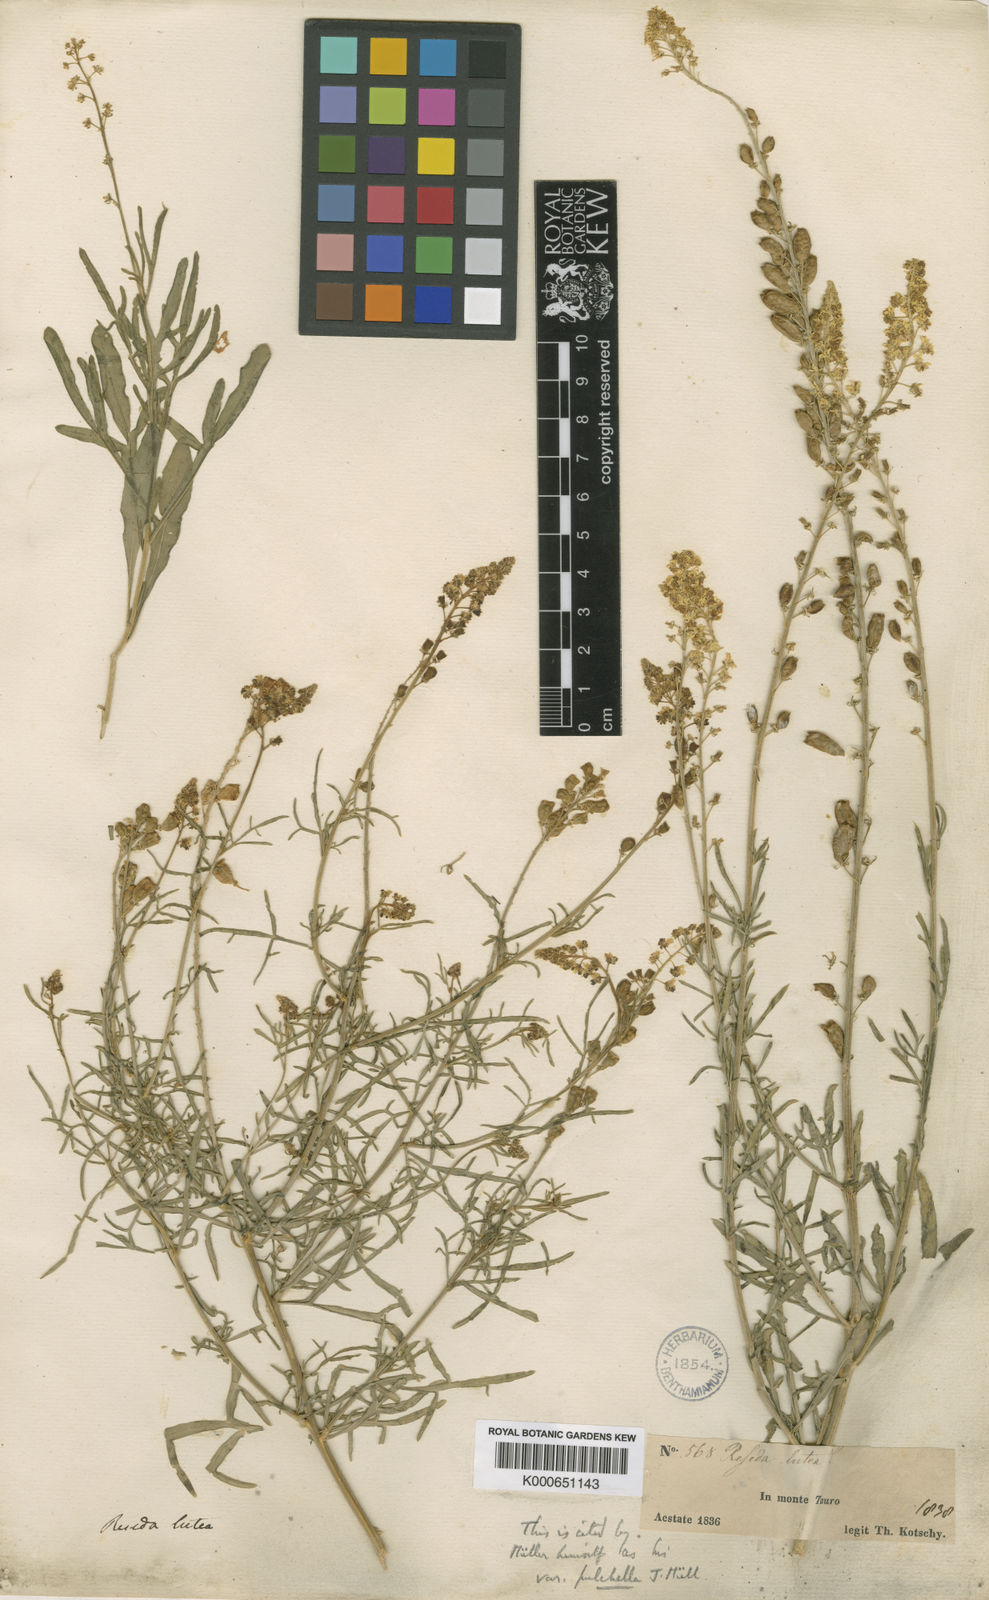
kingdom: Plantae
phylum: Tracheophyta
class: Magnoliopsida
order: Brassicales
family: Resedaceae
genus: Reseda
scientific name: Reseda lutea
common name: Wild mignonette
